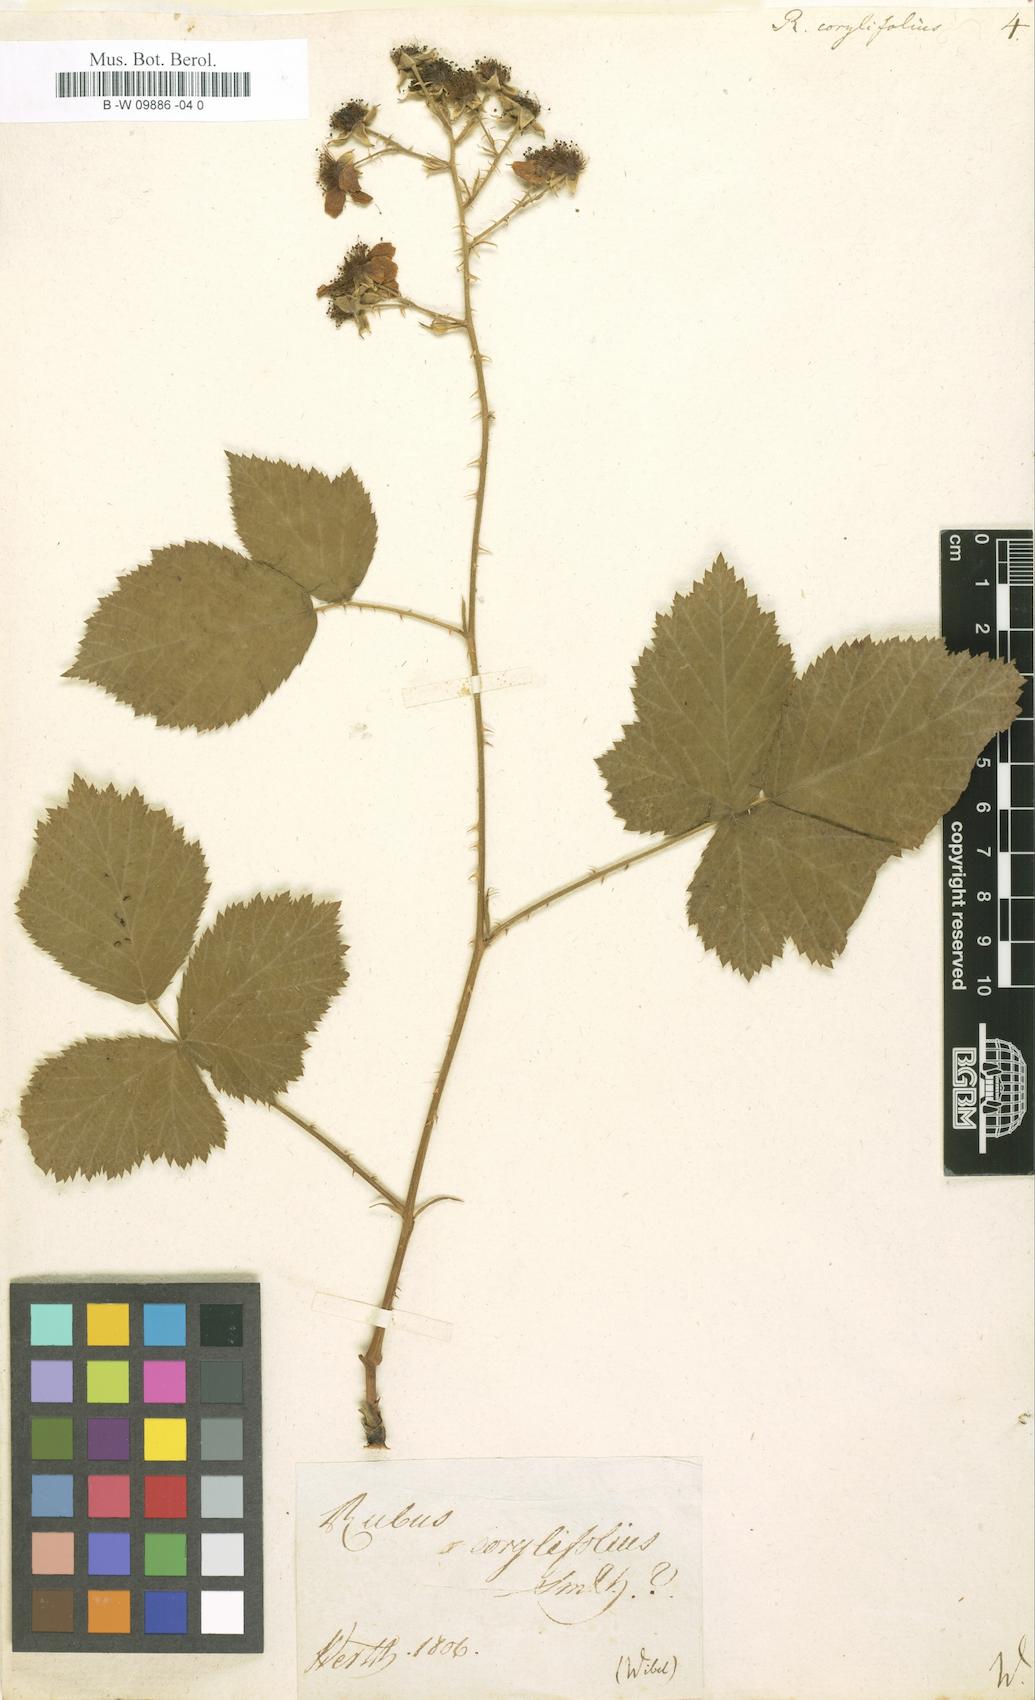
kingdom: Plantae
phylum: Tracheophyta
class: Magnoliopsida
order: Rosales
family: Rosaceae
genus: Rubus
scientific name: Rubus
